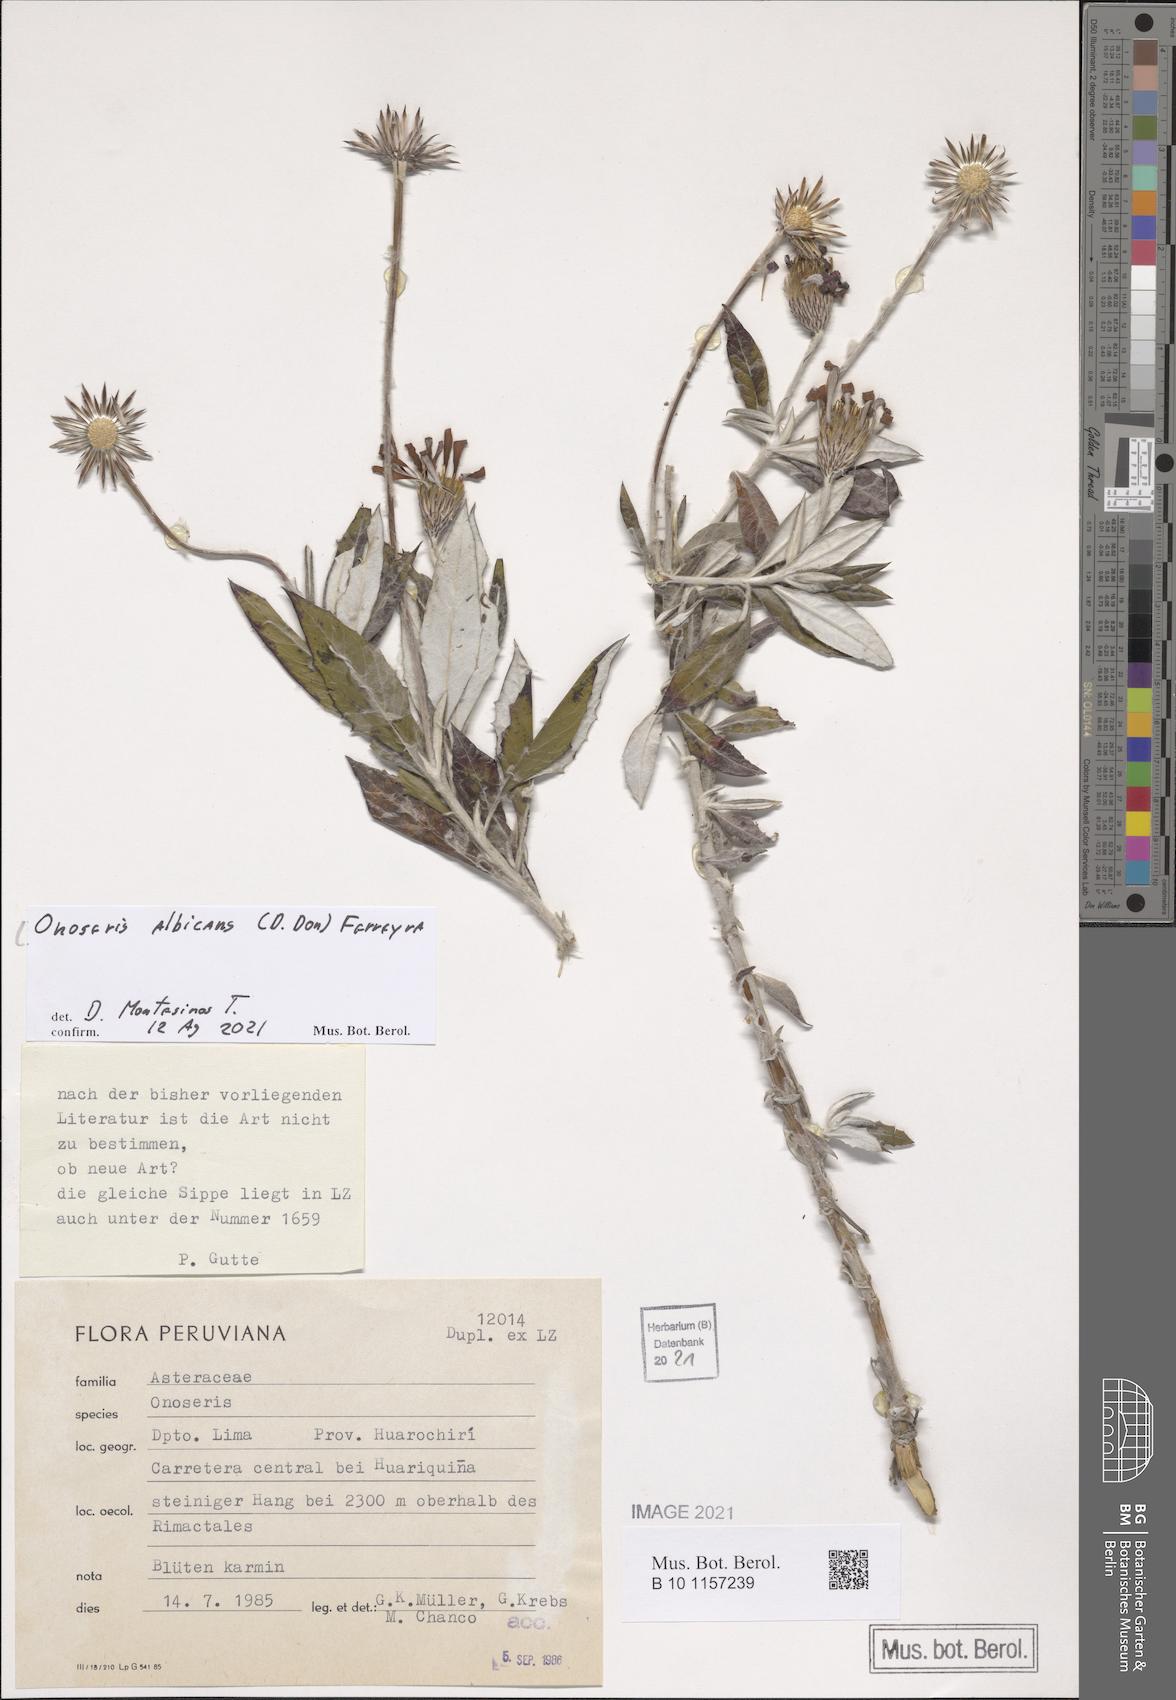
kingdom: Plantae
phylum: Tracheophyta
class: Magnoliopsida
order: Asterales
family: Asteraceae
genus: Onoseris
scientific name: Onoseris albicans
